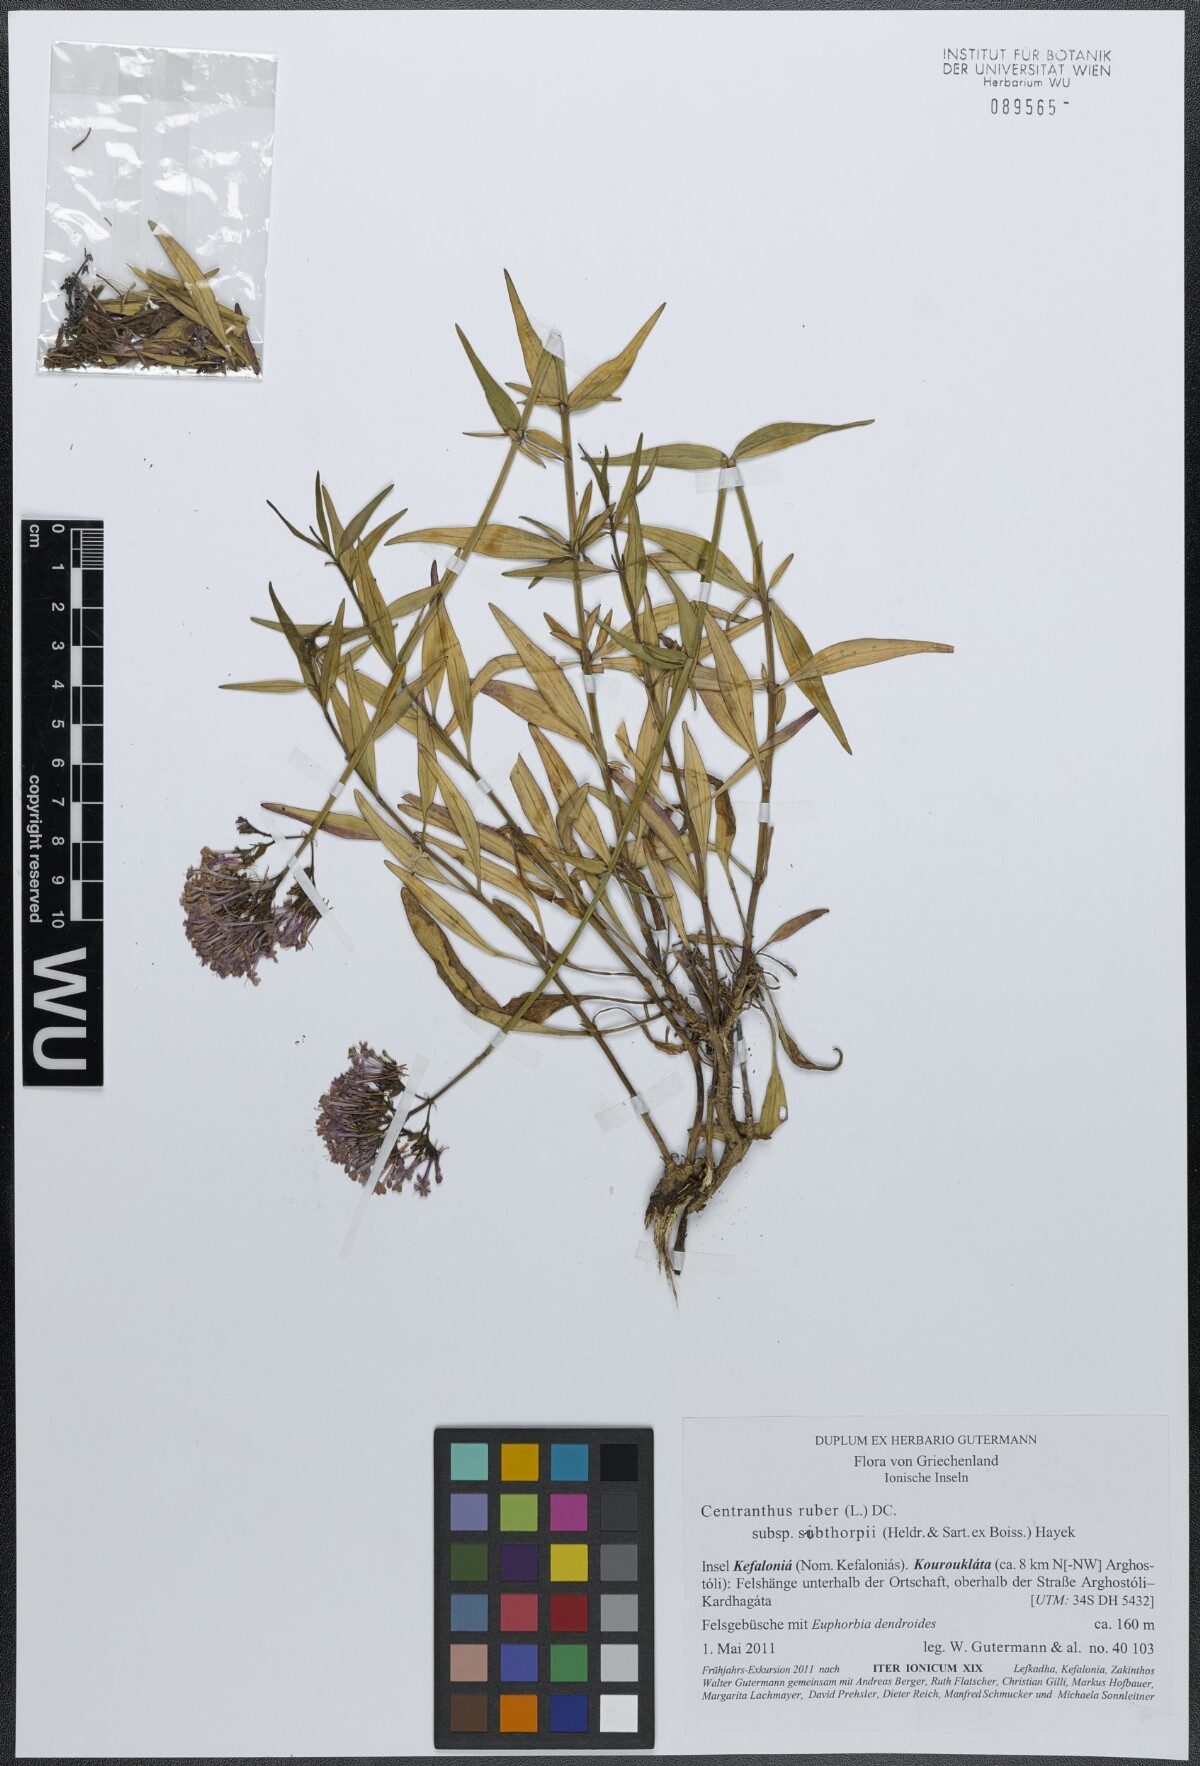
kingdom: Plantae
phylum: Tracheophyta
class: Magnoliopsida
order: Dipsacales
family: Caprifoliaceae
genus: Centranthus
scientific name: Centranthus ruber
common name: Red valerian
